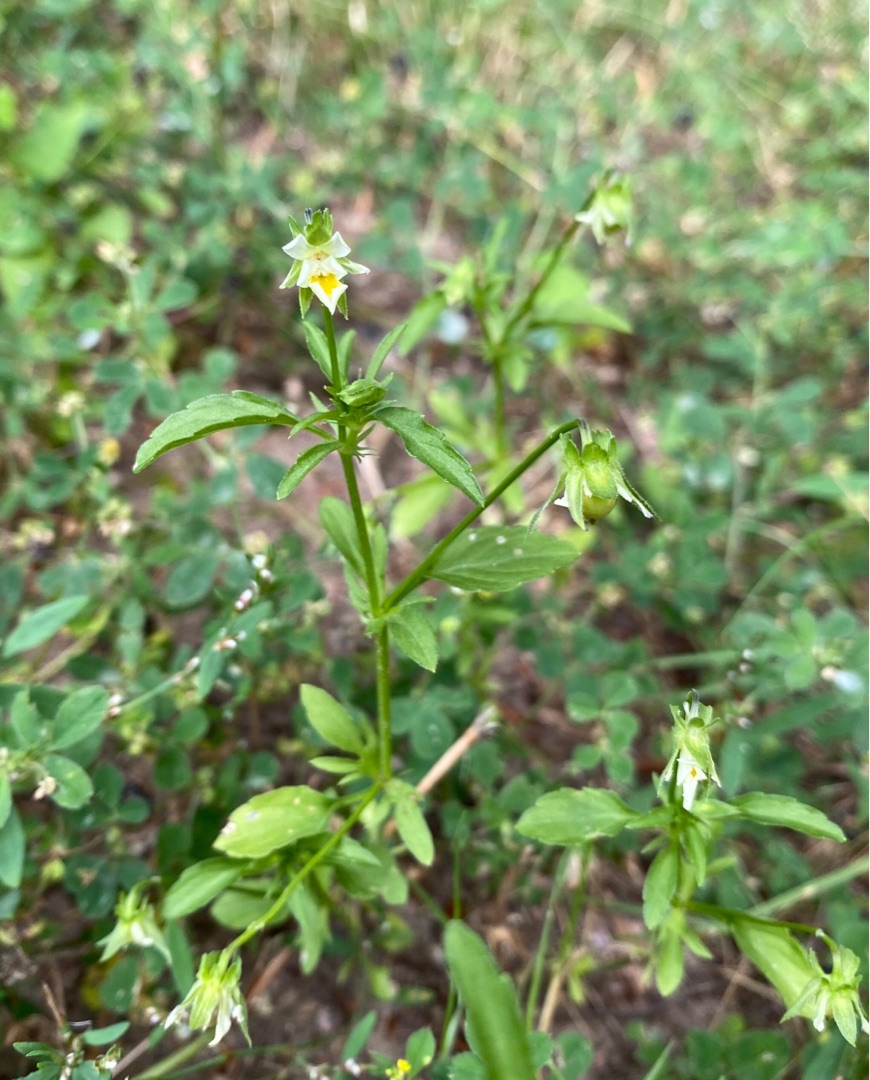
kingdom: Plantae
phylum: Tracheophyta
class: Magnoliopsida
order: Malpighiales
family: Violaceae
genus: Viola
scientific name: Viola arvensis
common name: Ager-stedmoderblomst
